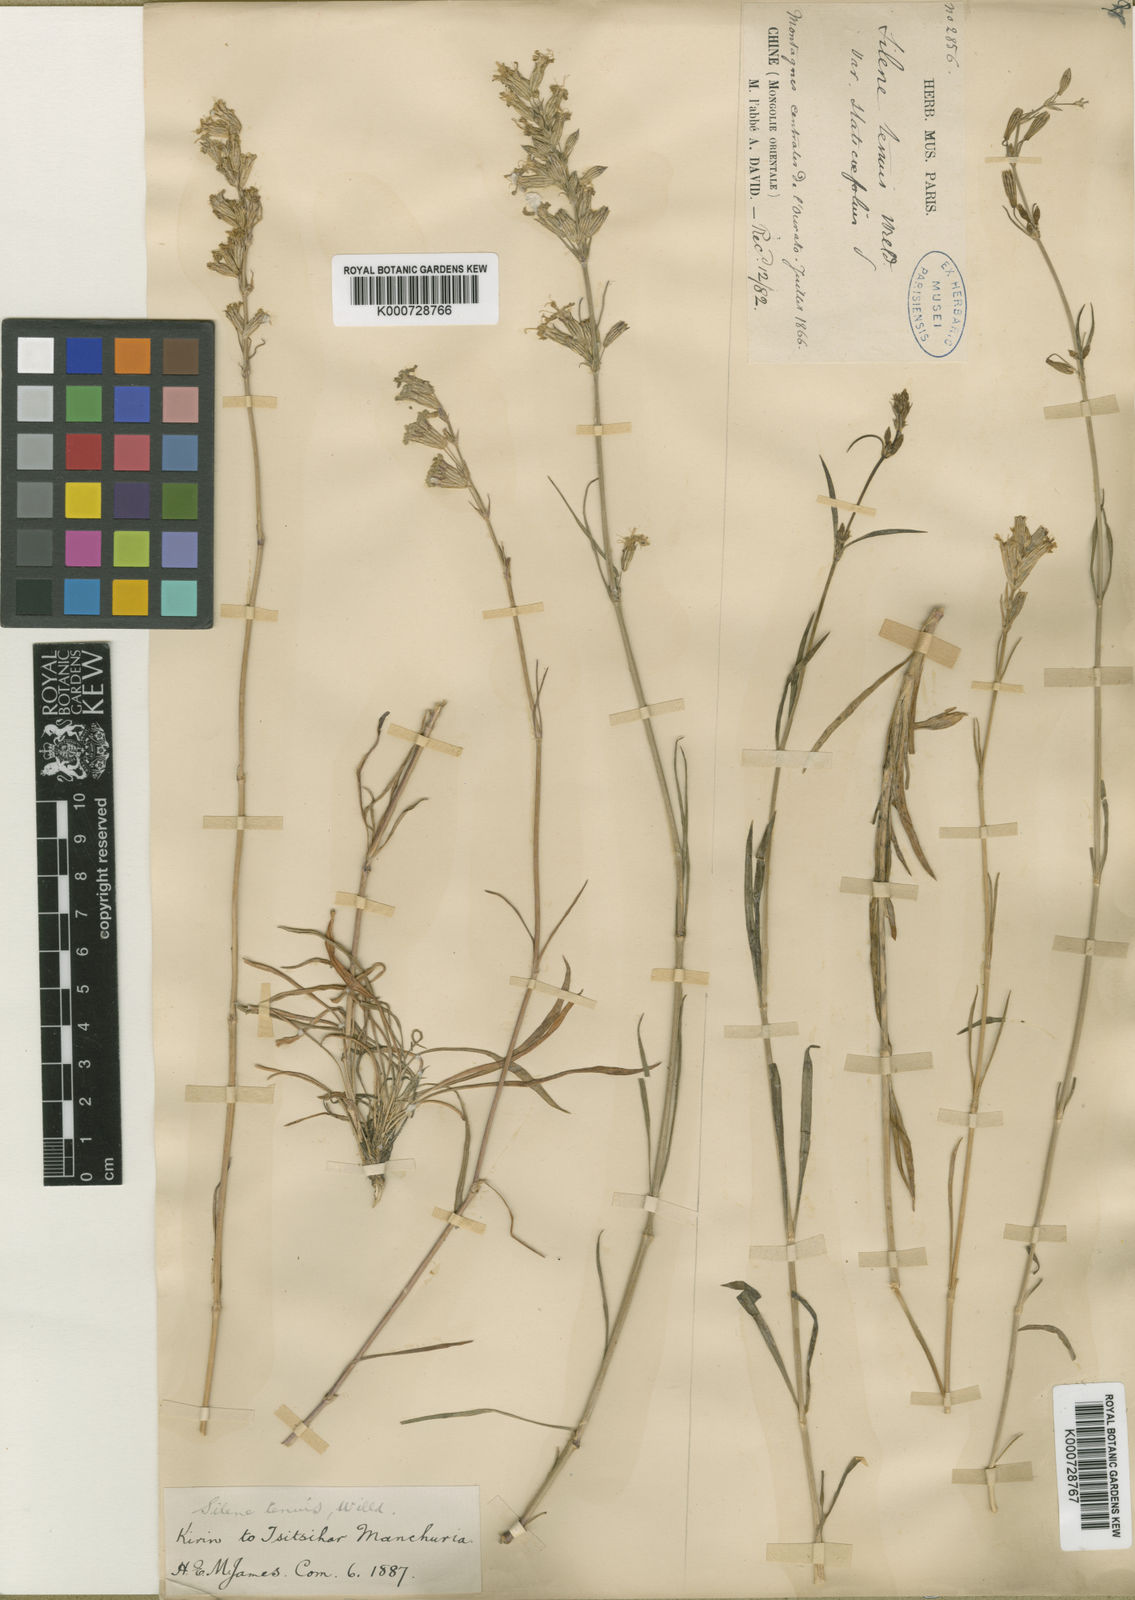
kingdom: Plantae
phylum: Tracheophyta
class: Magnoliopsida
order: Caryophyllales
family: Caryophyllaceae
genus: Silene
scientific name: Silene
